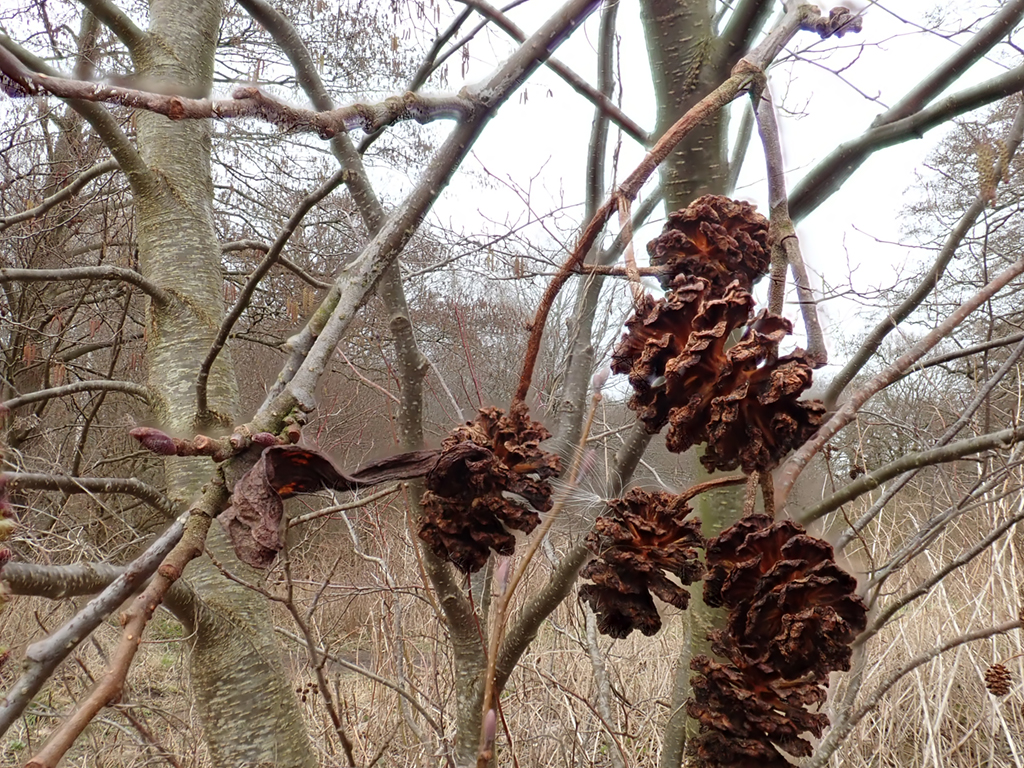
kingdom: Fungi
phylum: Ascomycota
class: Taphrinomycetes
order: Taphrinales
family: Taphrinaceae
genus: Taphrina
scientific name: Taphrina alni
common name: Alder tongue
